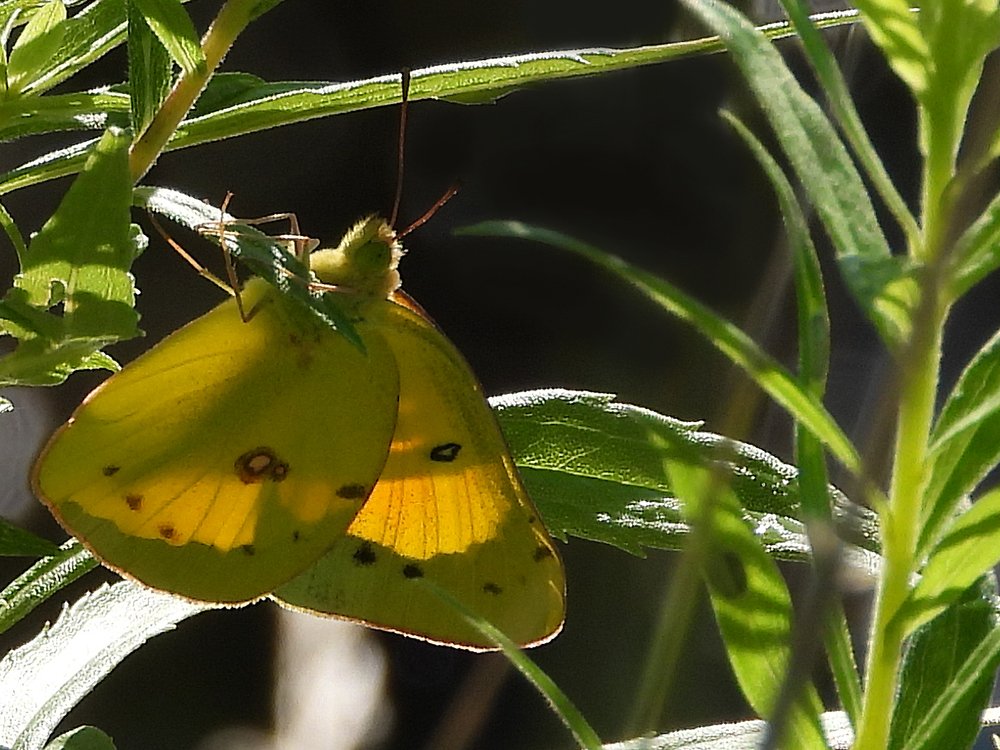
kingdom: Animalia
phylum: Arthropoda
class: Insecta
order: Lepidoptera
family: Pieridae
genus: Colias
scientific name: Colias philodice
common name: Clouded Sulphur
